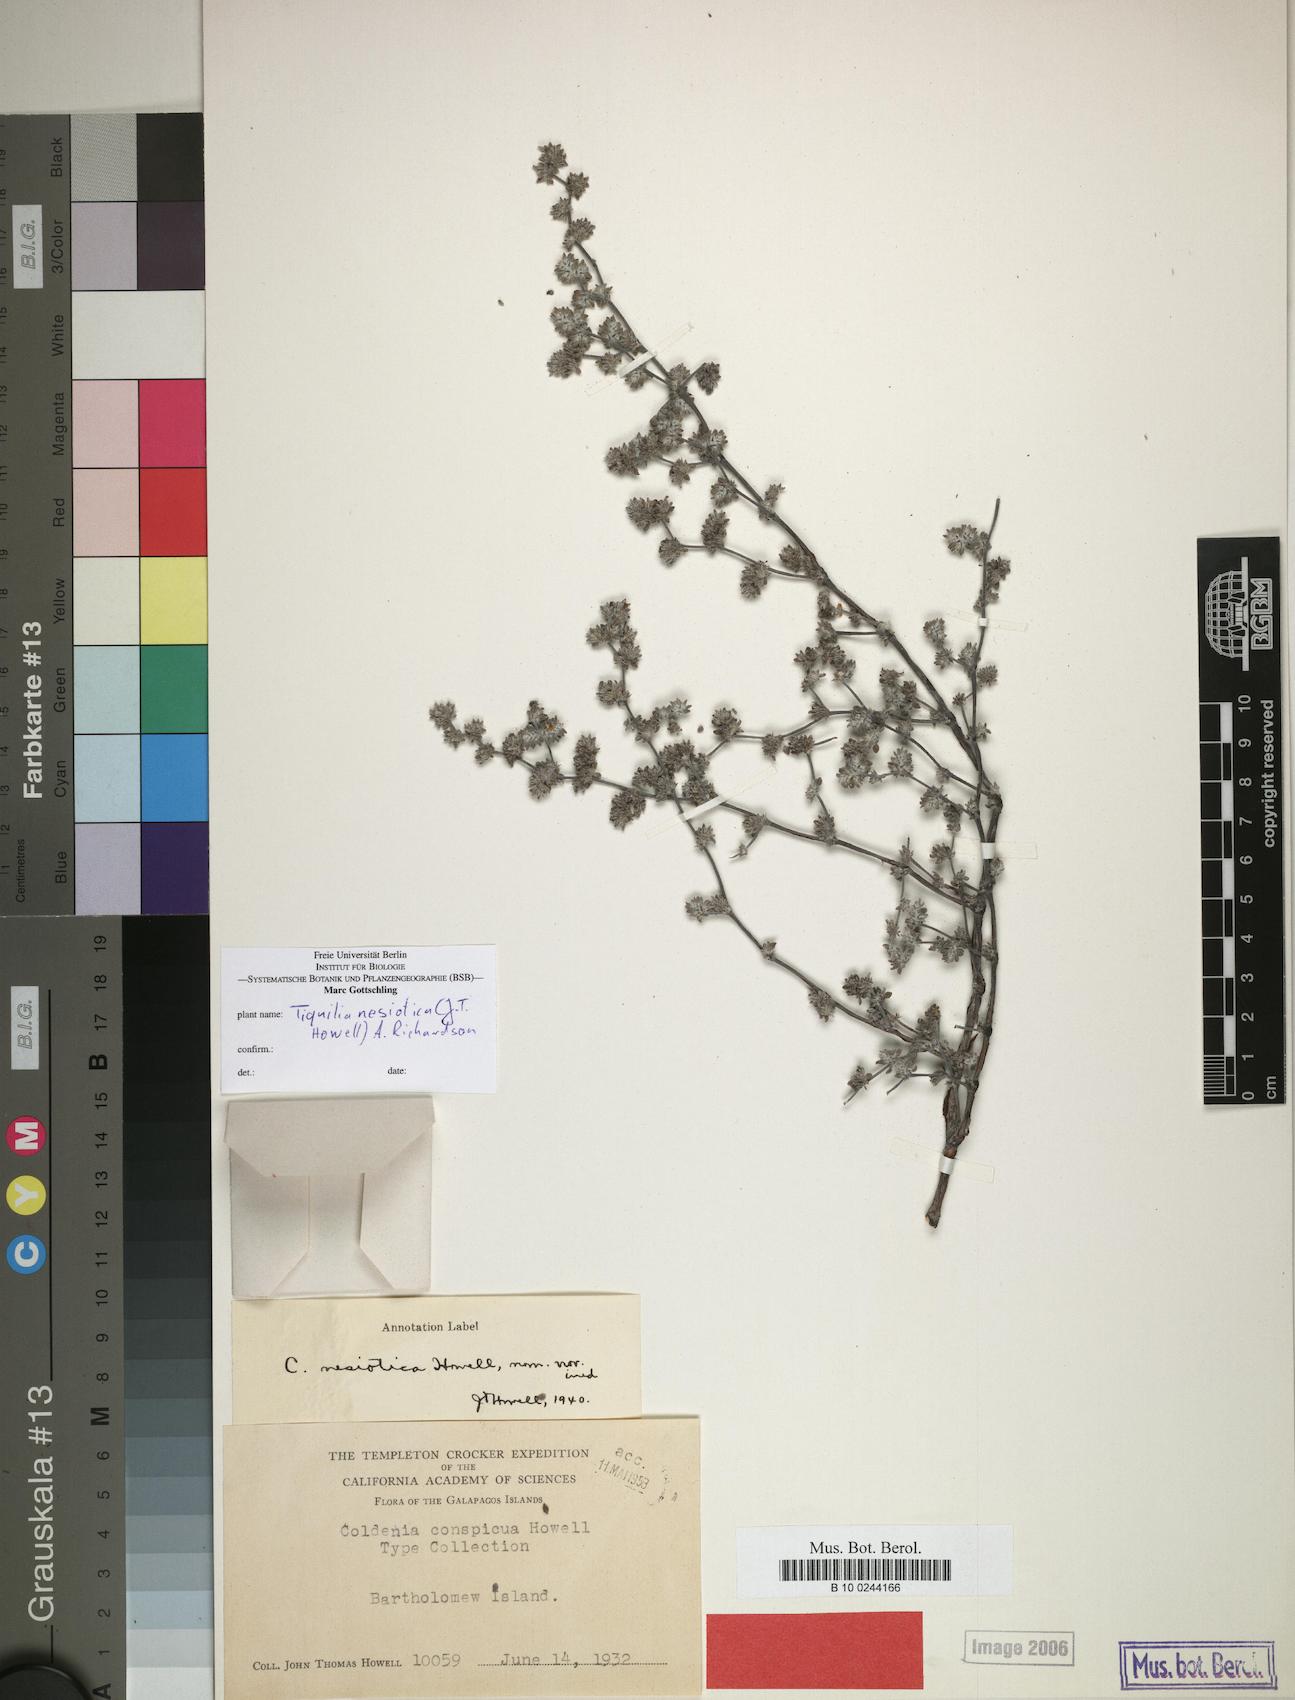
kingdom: Plantae
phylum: Tracheophyta
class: Magnoliopsida
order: Boraginales
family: Ehretiaceae
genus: Tiquilia
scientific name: Tiquilia nesiotica
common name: Gray matplant
